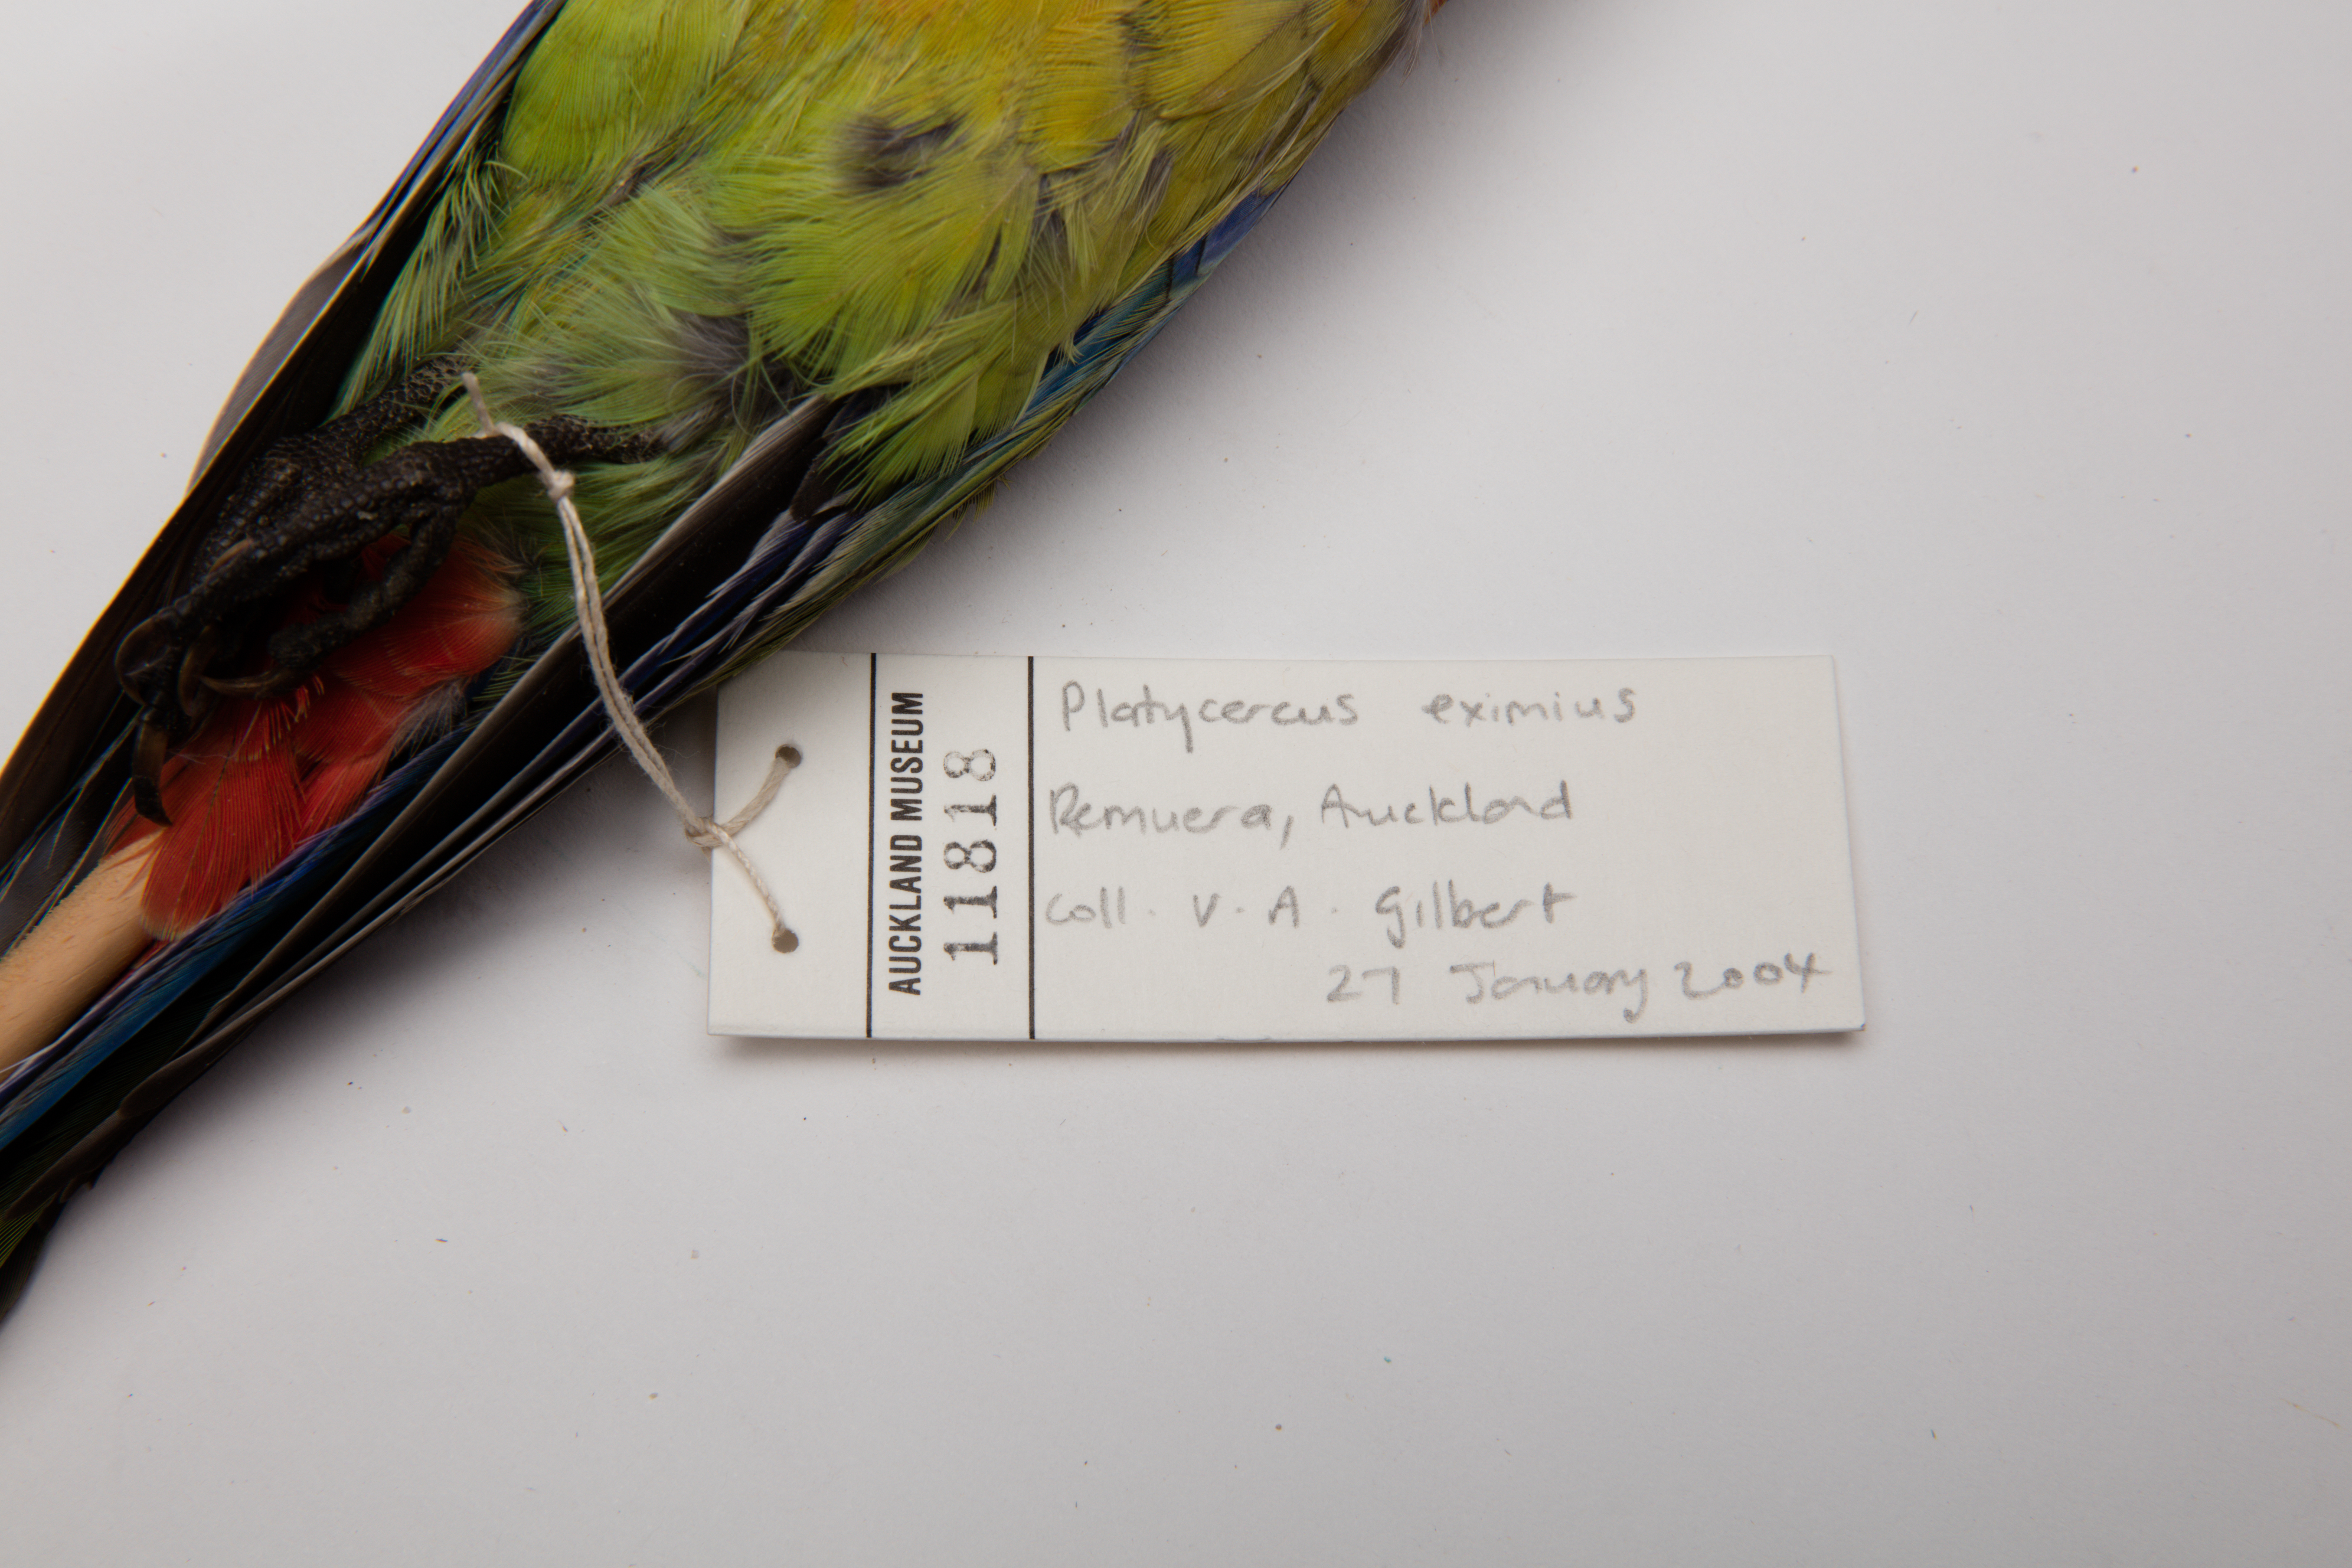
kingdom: Animalia
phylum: Chordata
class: Aves
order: Psittaciformes
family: Psittacidae
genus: Platycercus
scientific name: Platycercus eximius
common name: Eastern rosella
